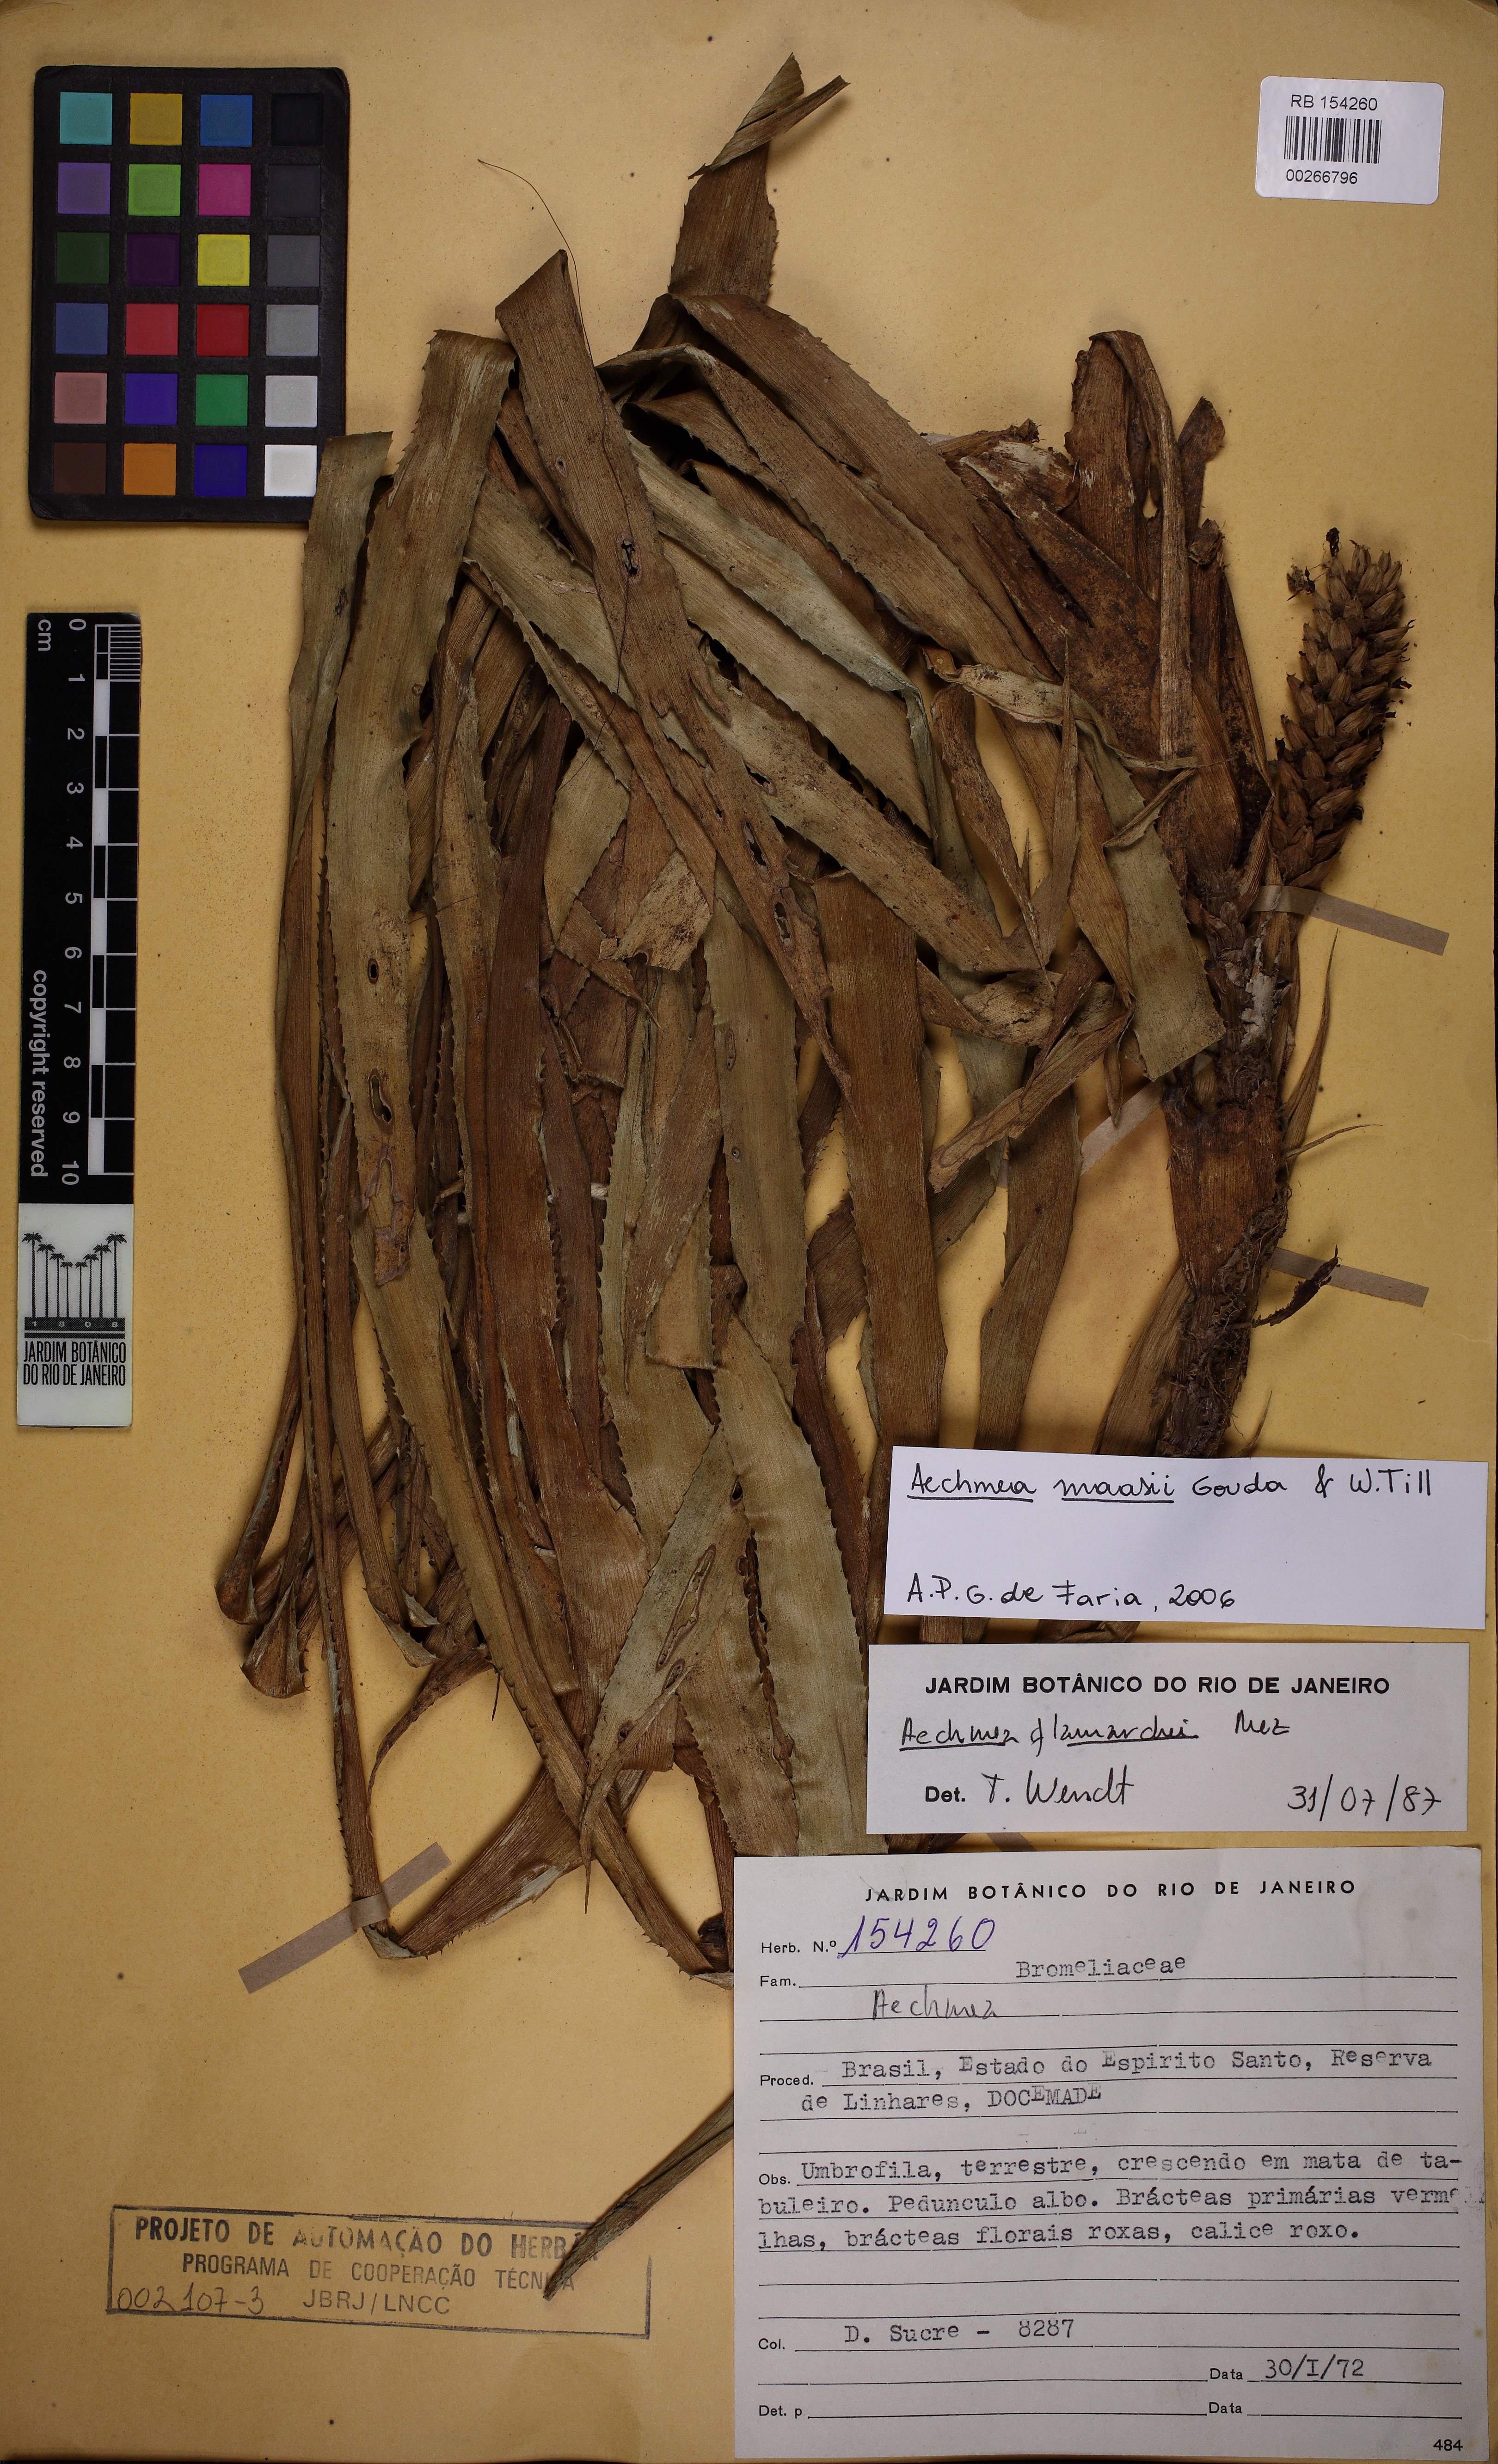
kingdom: Plantae
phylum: Tracheophyta
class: Liliopsida
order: Poales
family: Bromeliaceae
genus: Aechmea
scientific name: Aechmea maasii
